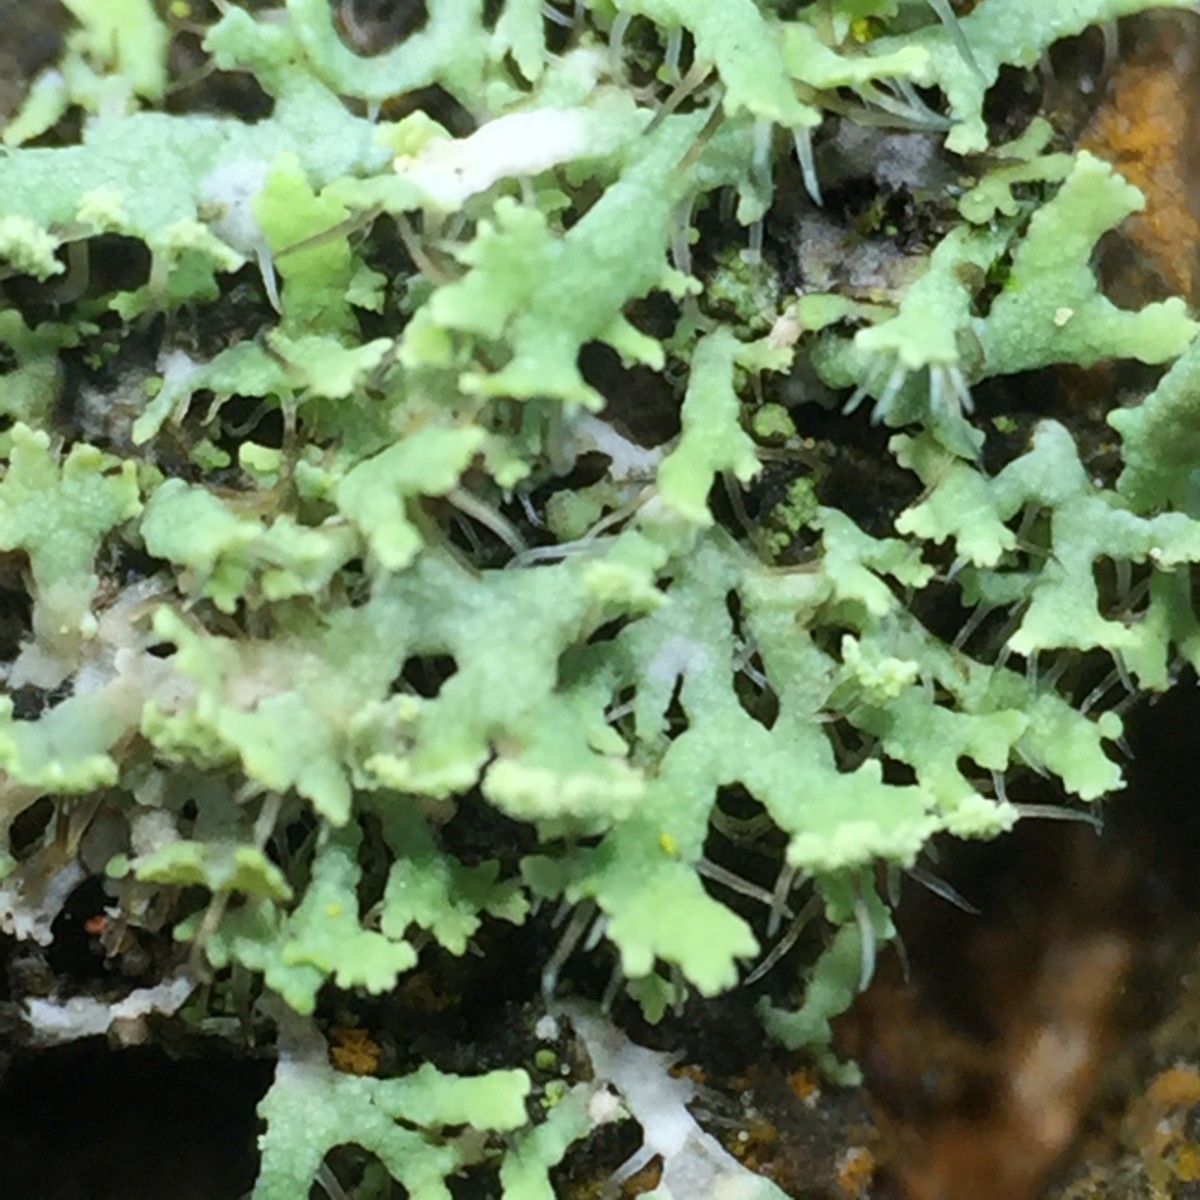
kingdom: Fungi
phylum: Ascomycota
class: Lecanoromycetes
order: Caliciales
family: Physciaceae
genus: Physcia
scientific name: Physcia tenella
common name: spæd rosetlav
